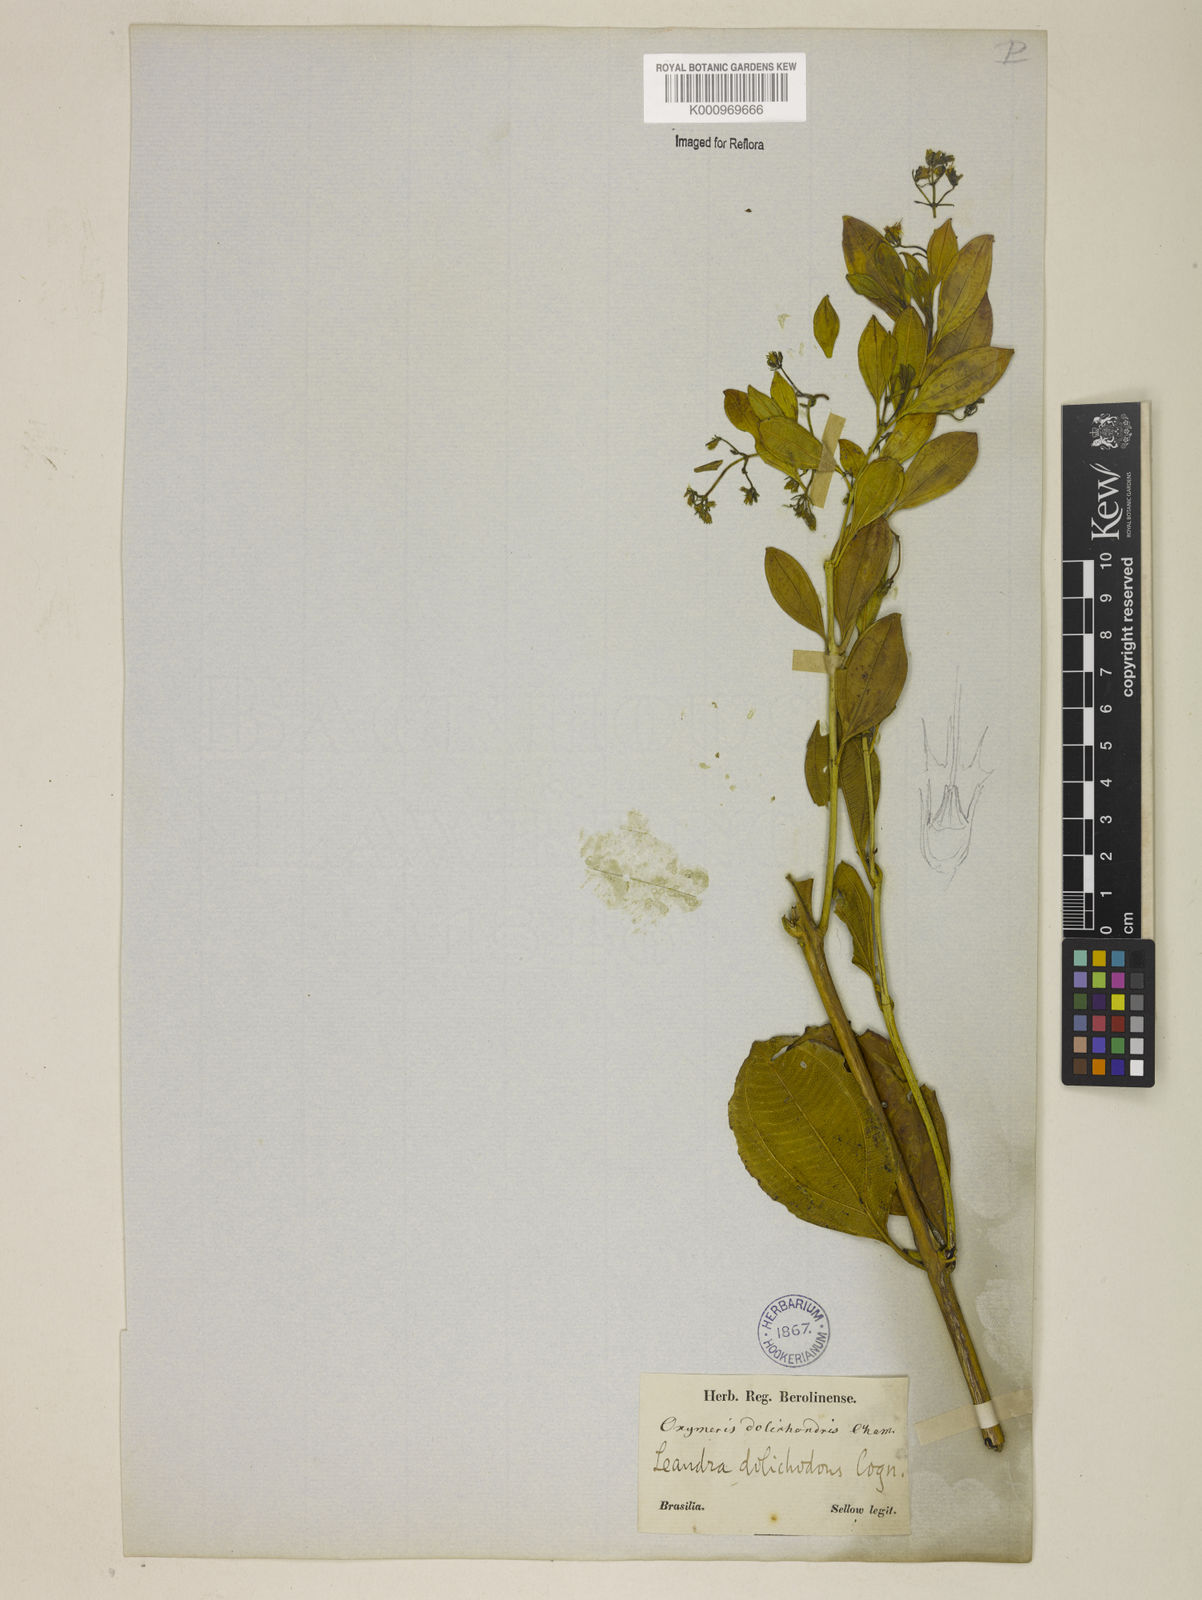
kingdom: Plantae
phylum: Tracheophyta
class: Magnoliopsida
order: Myrtales
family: Melastomataceae
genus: Miconia
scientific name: Miconia
